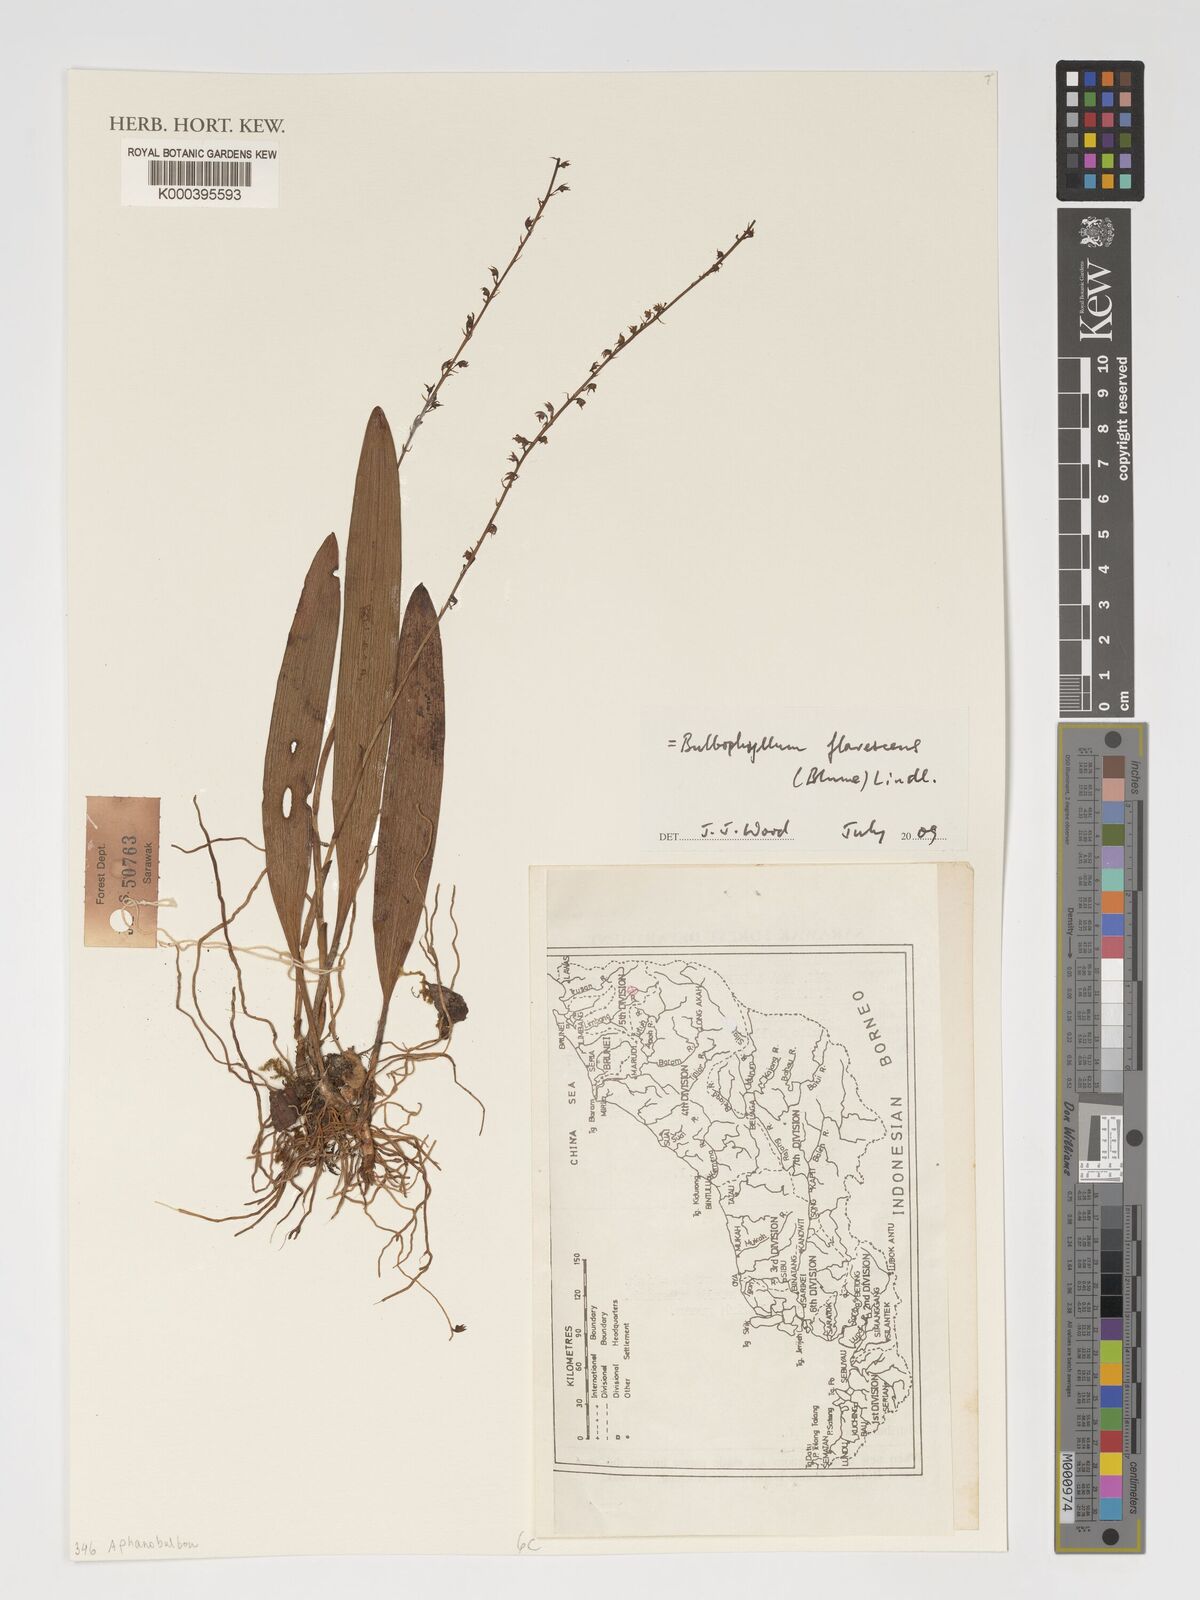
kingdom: Plantae
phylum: Tracheophyta
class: Liliopsida
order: Asparagales
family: Orchidaceae
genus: Bulbophyllum
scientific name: Bulbophyllum flavescens
